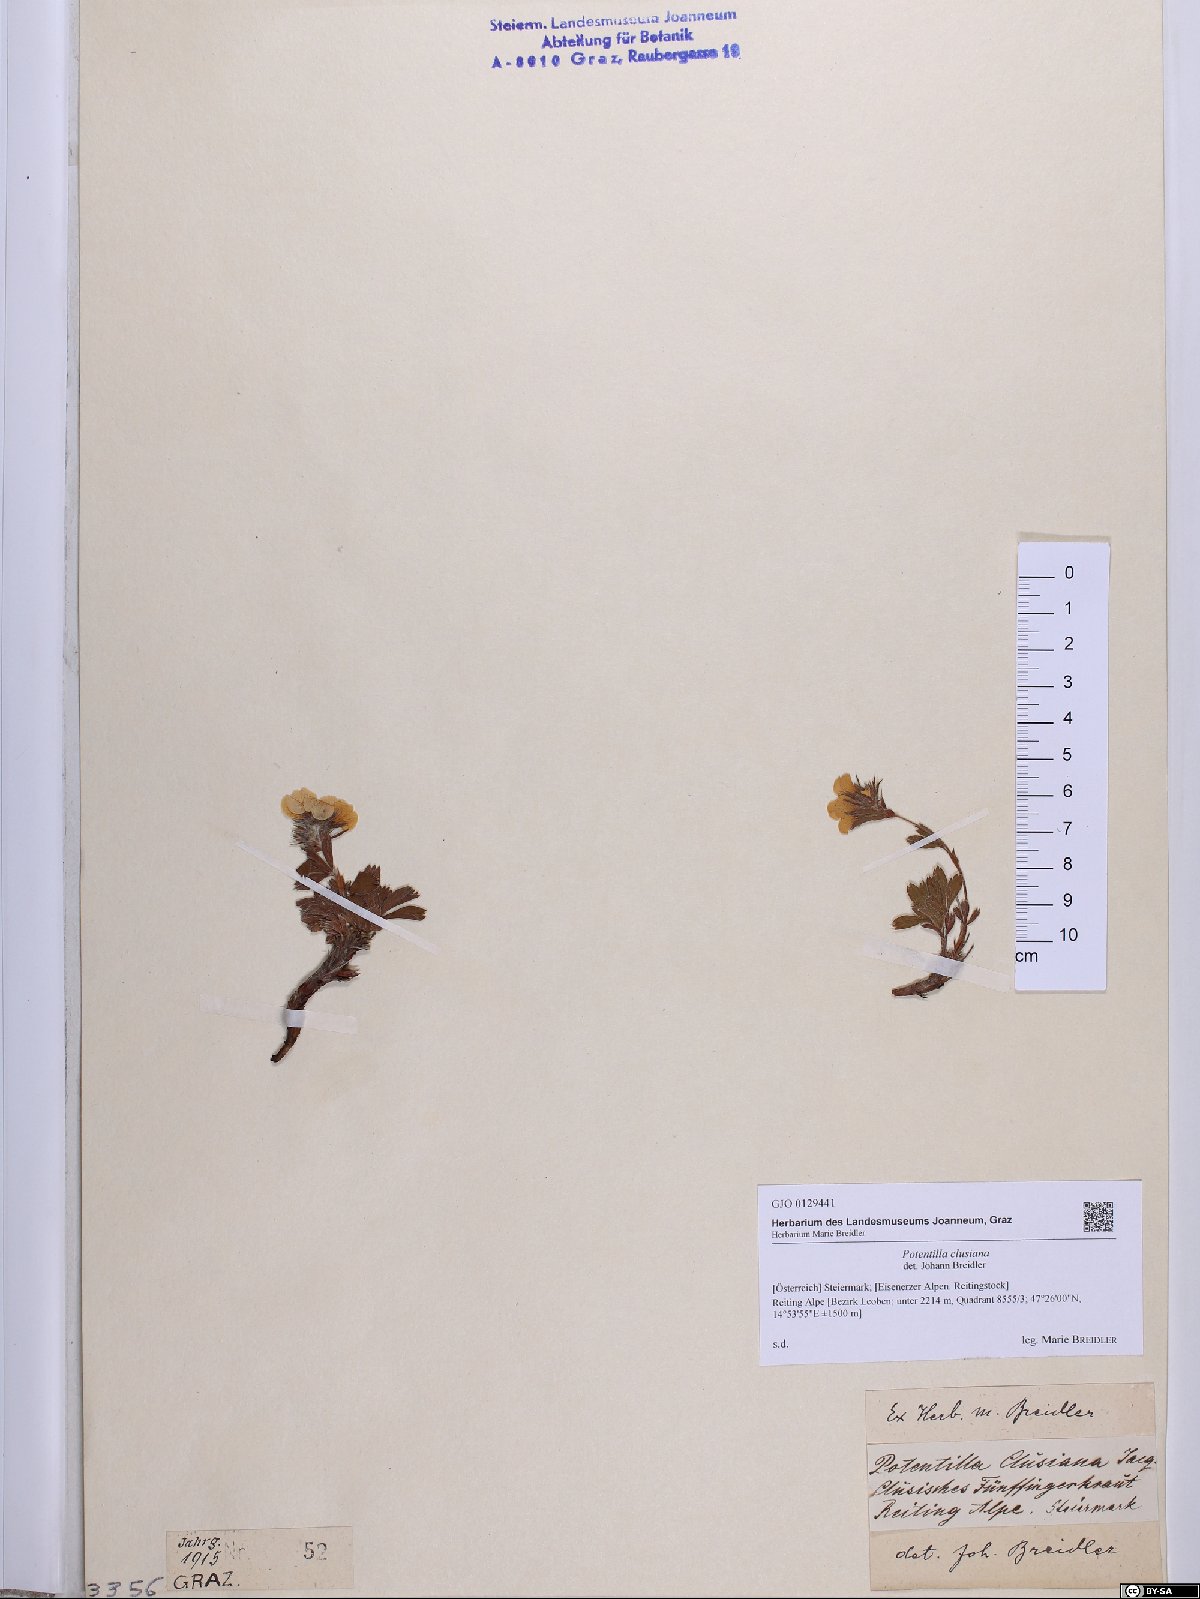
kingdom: Plantae
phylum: Tracheophyta
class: Magnoliopsida
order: Rosales
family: Rosaceae
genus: Potentilla
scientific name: Potentilla clusiana
